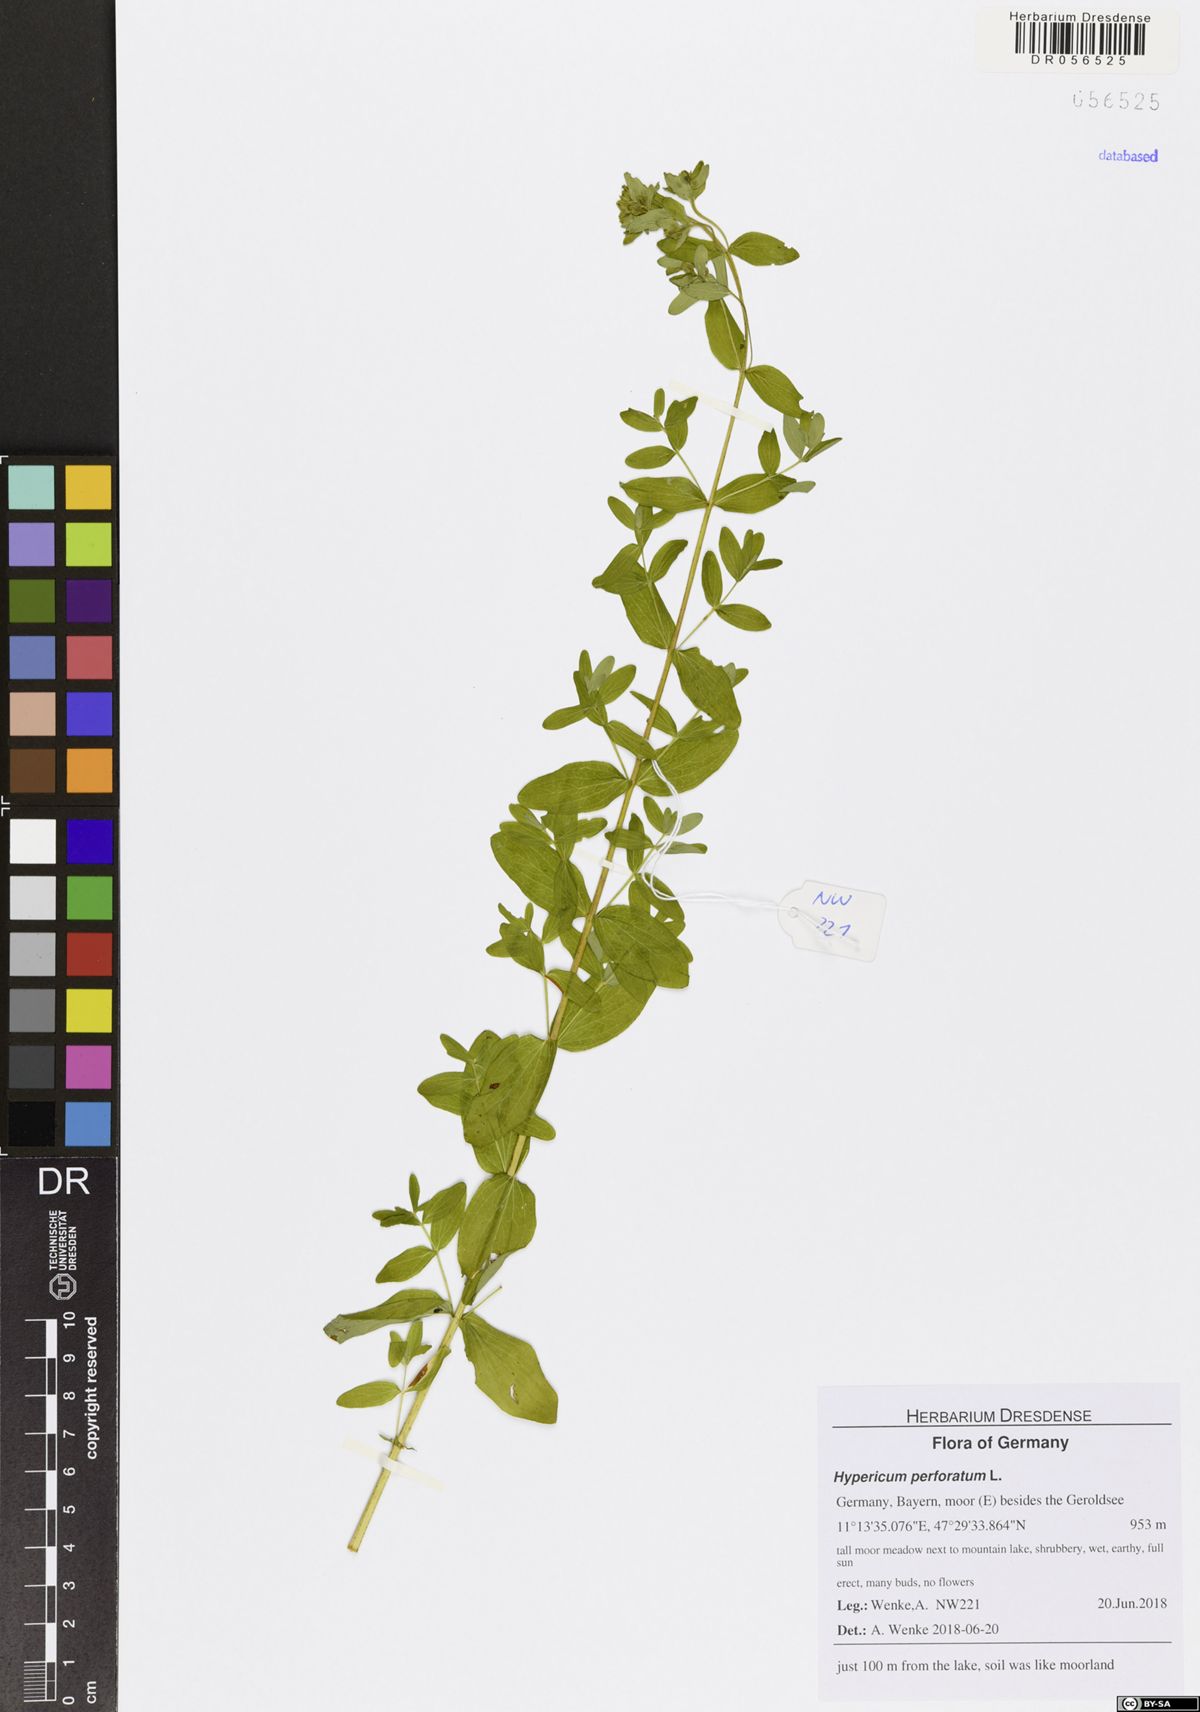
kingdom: Plantae
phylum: Tracheophyta
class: Magnoliopsida
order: Malpighiales
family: Hypericaceae
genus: Hypericum
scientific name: Hypericum perforatum
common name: Common st. johnswort
